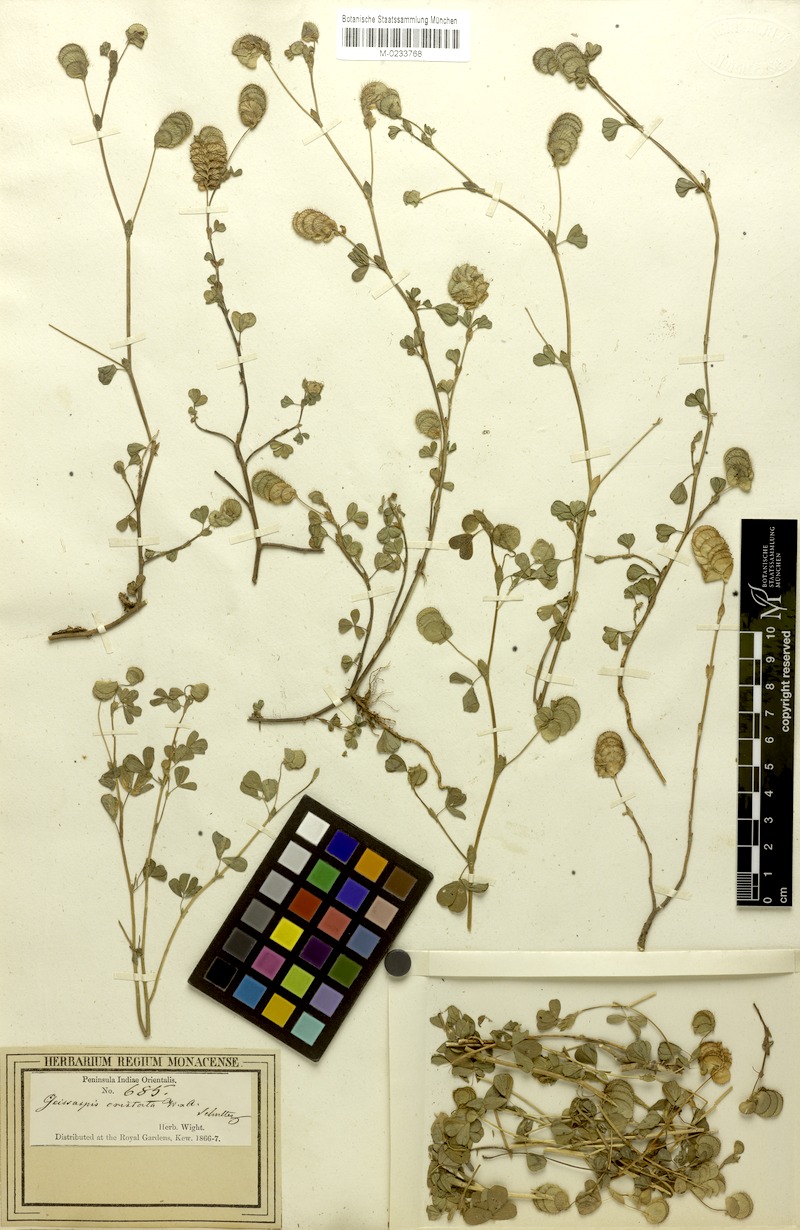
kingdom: Plantae
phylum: Tracheophyta
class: Magnoliopsida
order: Fabales
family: Fabaceae
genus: Geissaspis
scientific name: Geissaspis cristata
